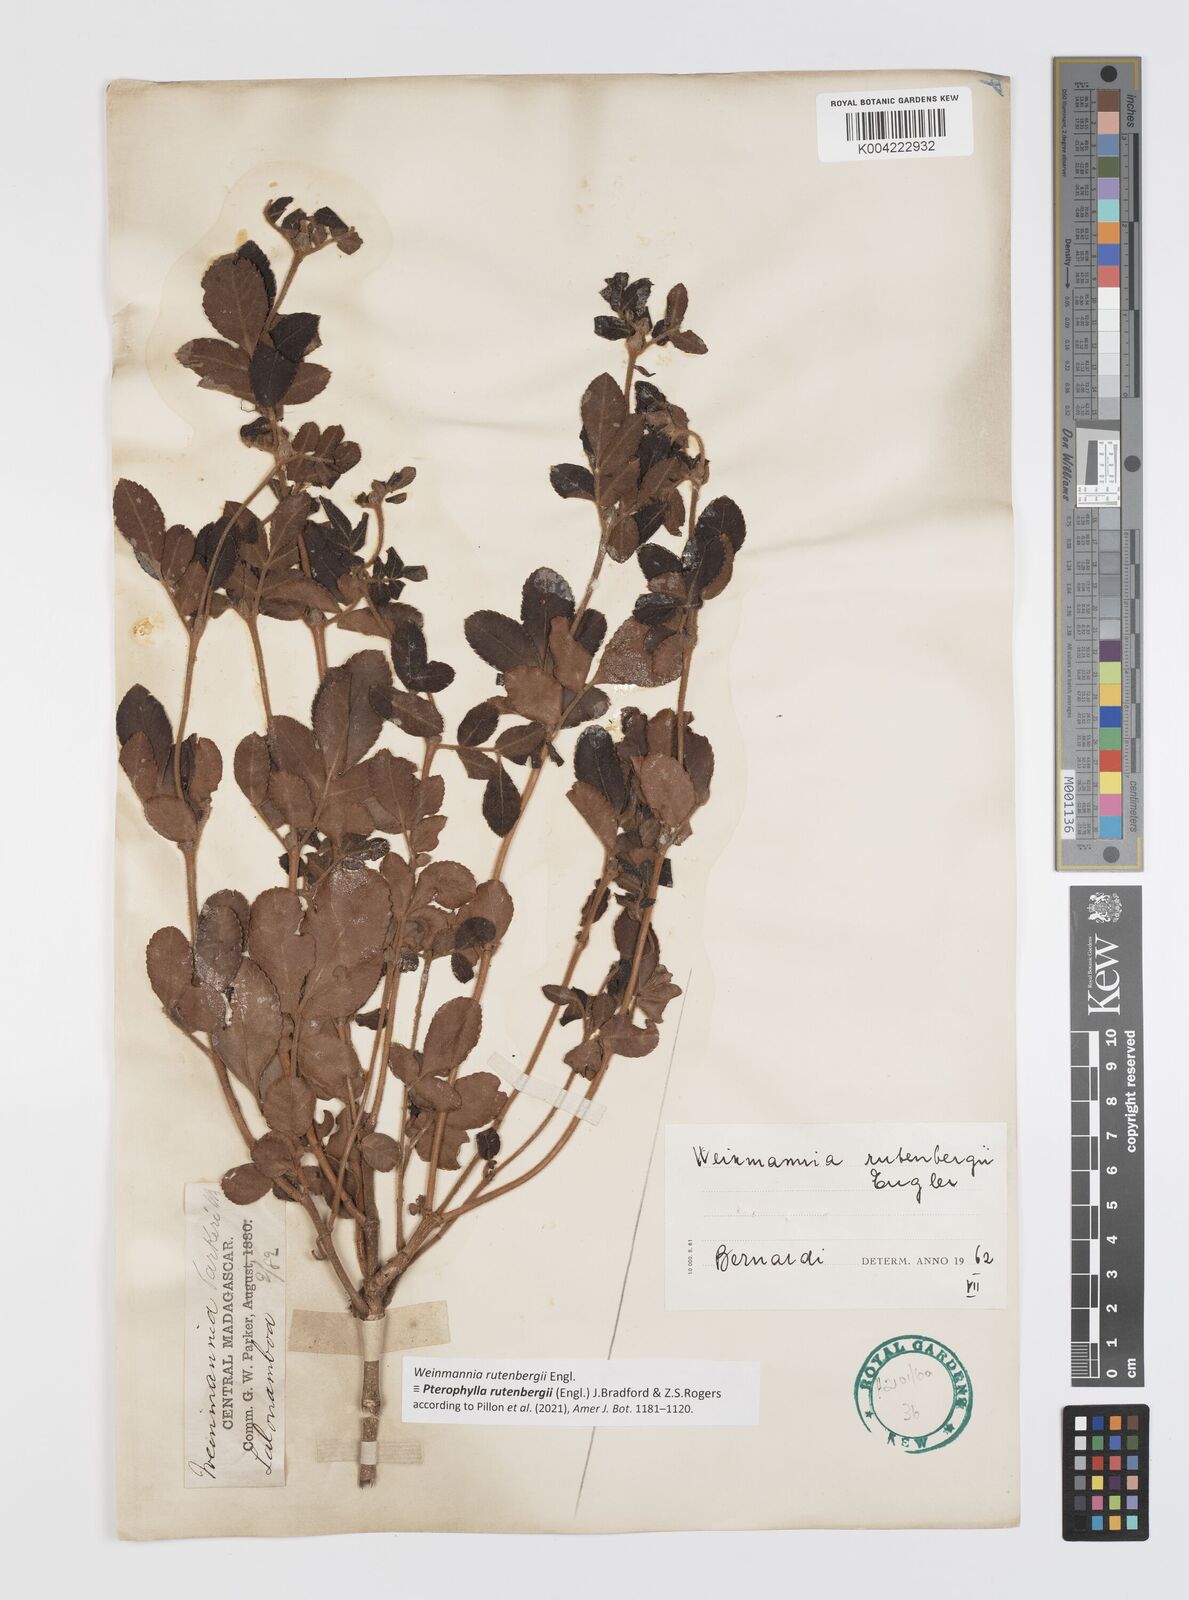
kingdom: Plantae
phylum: Tracheophyta
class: Magnoliopsida
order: Oxalidales
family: Cunoniaceae
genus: Pterophylla
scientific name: Pterophylla rutenbergii
